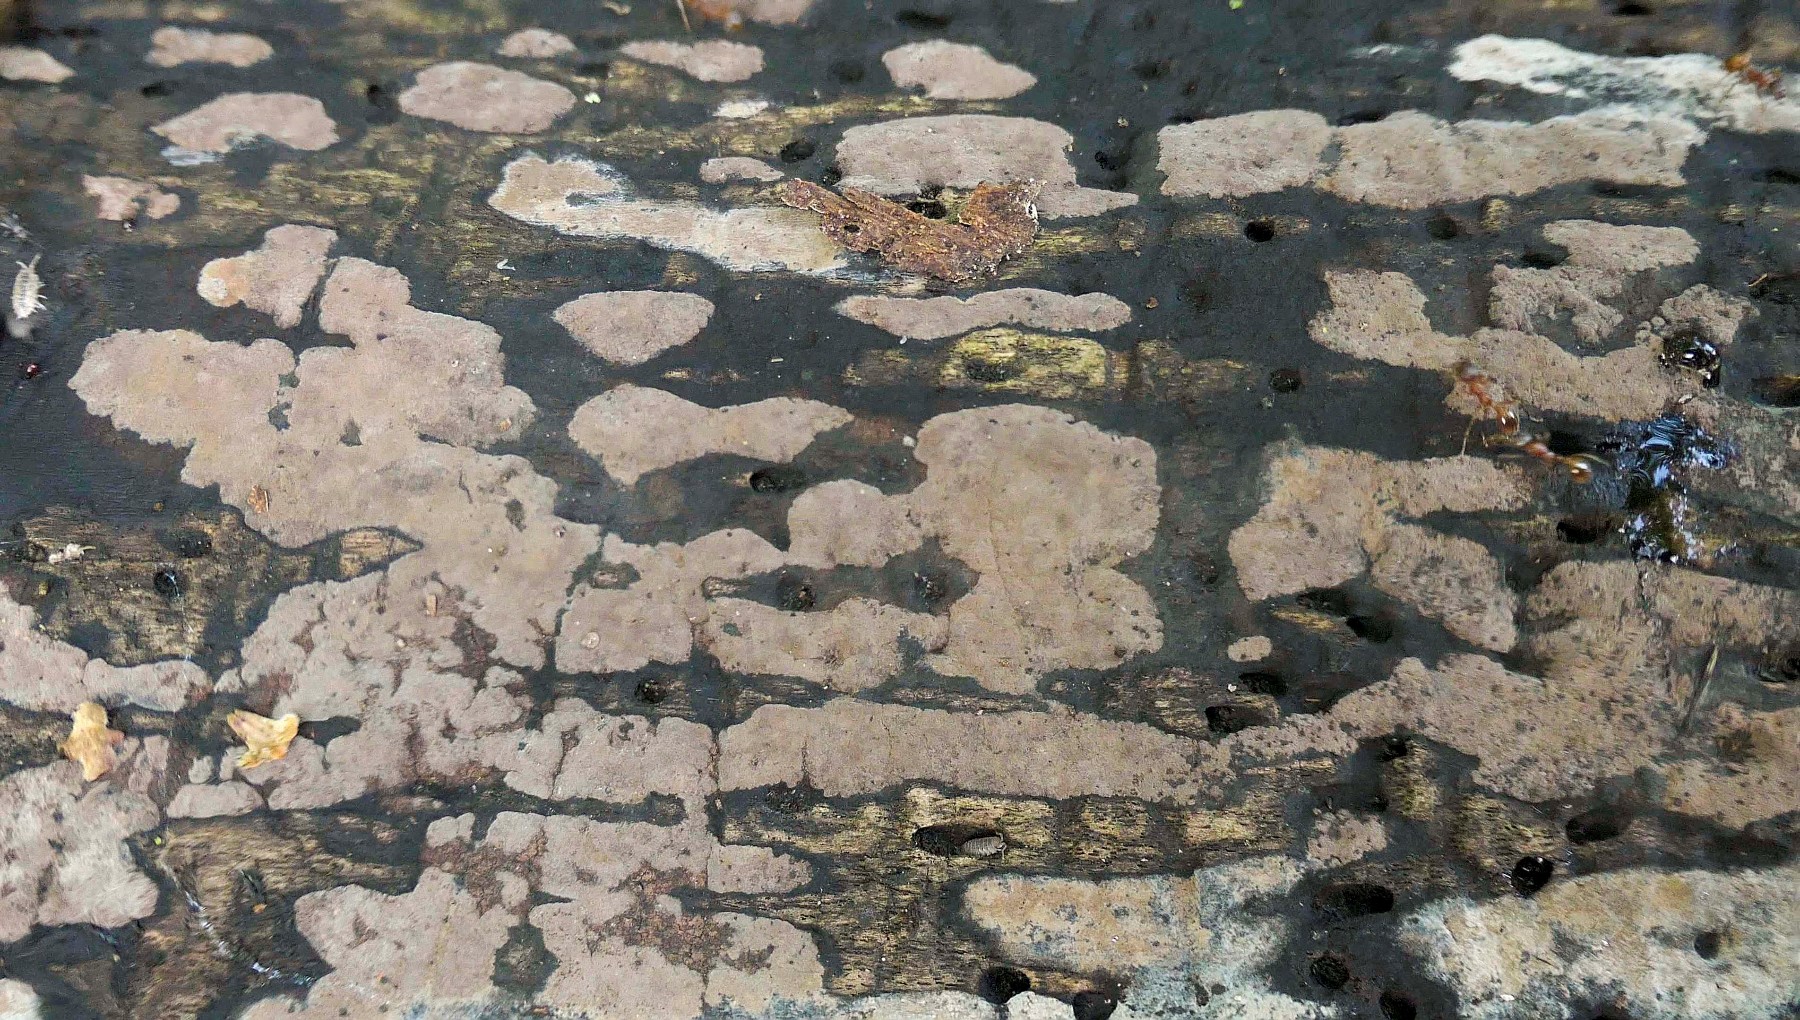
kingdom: Fungi
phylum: Ascomycota
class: Sordariomycetes
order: Xylariales
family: Hypoxylaceae
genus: Hypoxylon
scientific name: Hypoxylon petriniae
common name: nedsænket kulbær
